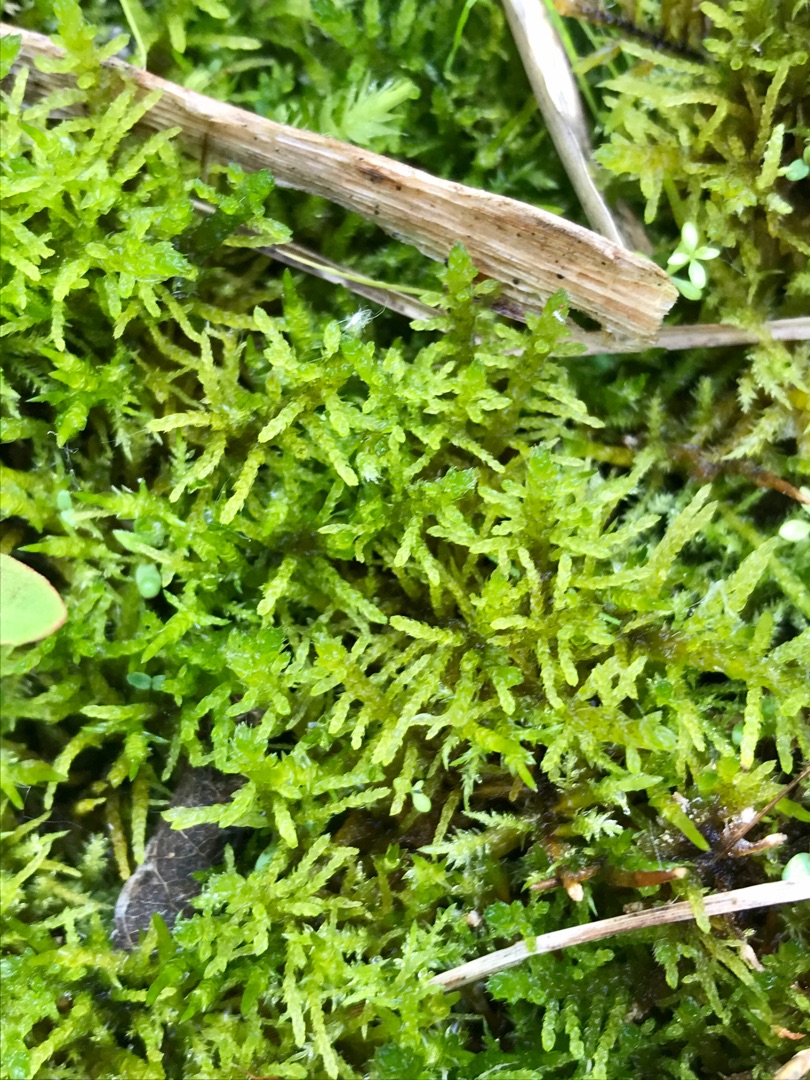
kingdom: Plantae
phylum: Bryophyta
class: Bryopsida
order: Hypnales
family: Helodiaceae
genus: Helodium
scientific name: Helodium blandowii
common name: Kær-gyldenmos
